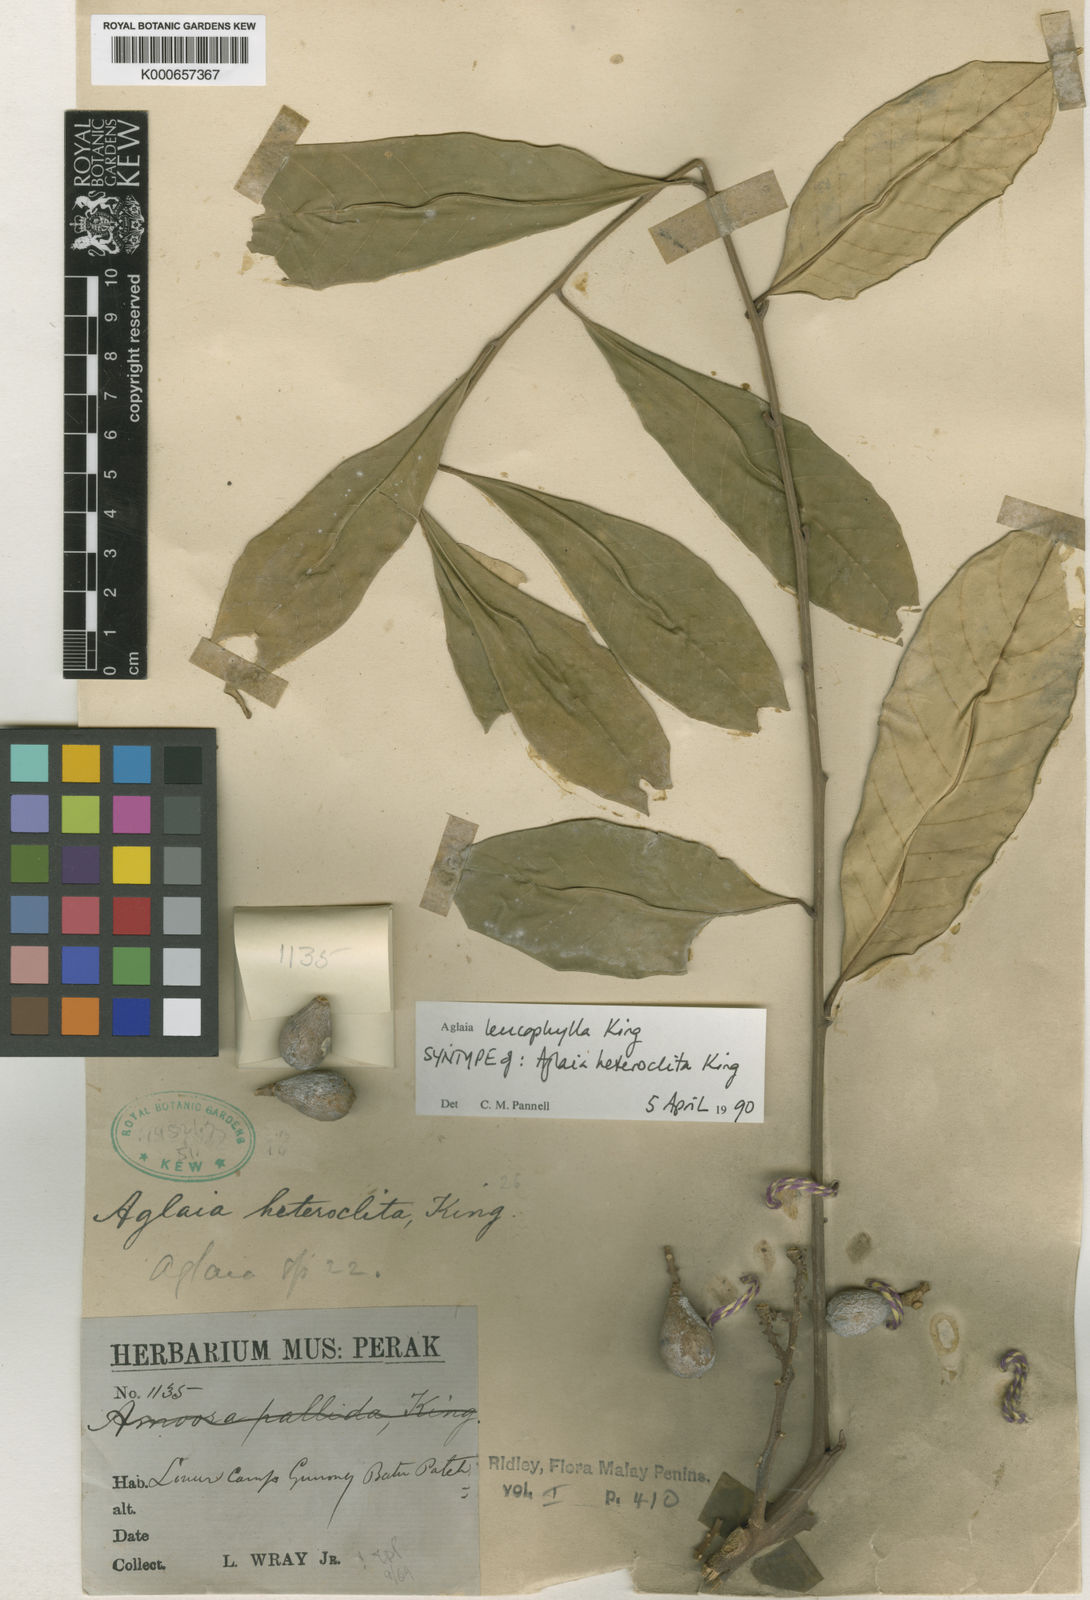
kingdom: Plantae
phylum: Tracheophyta
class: Magnoliopsida
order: Sapindales
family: Meliaceae
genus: Aglaia
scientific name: Aglaia leucophylla
